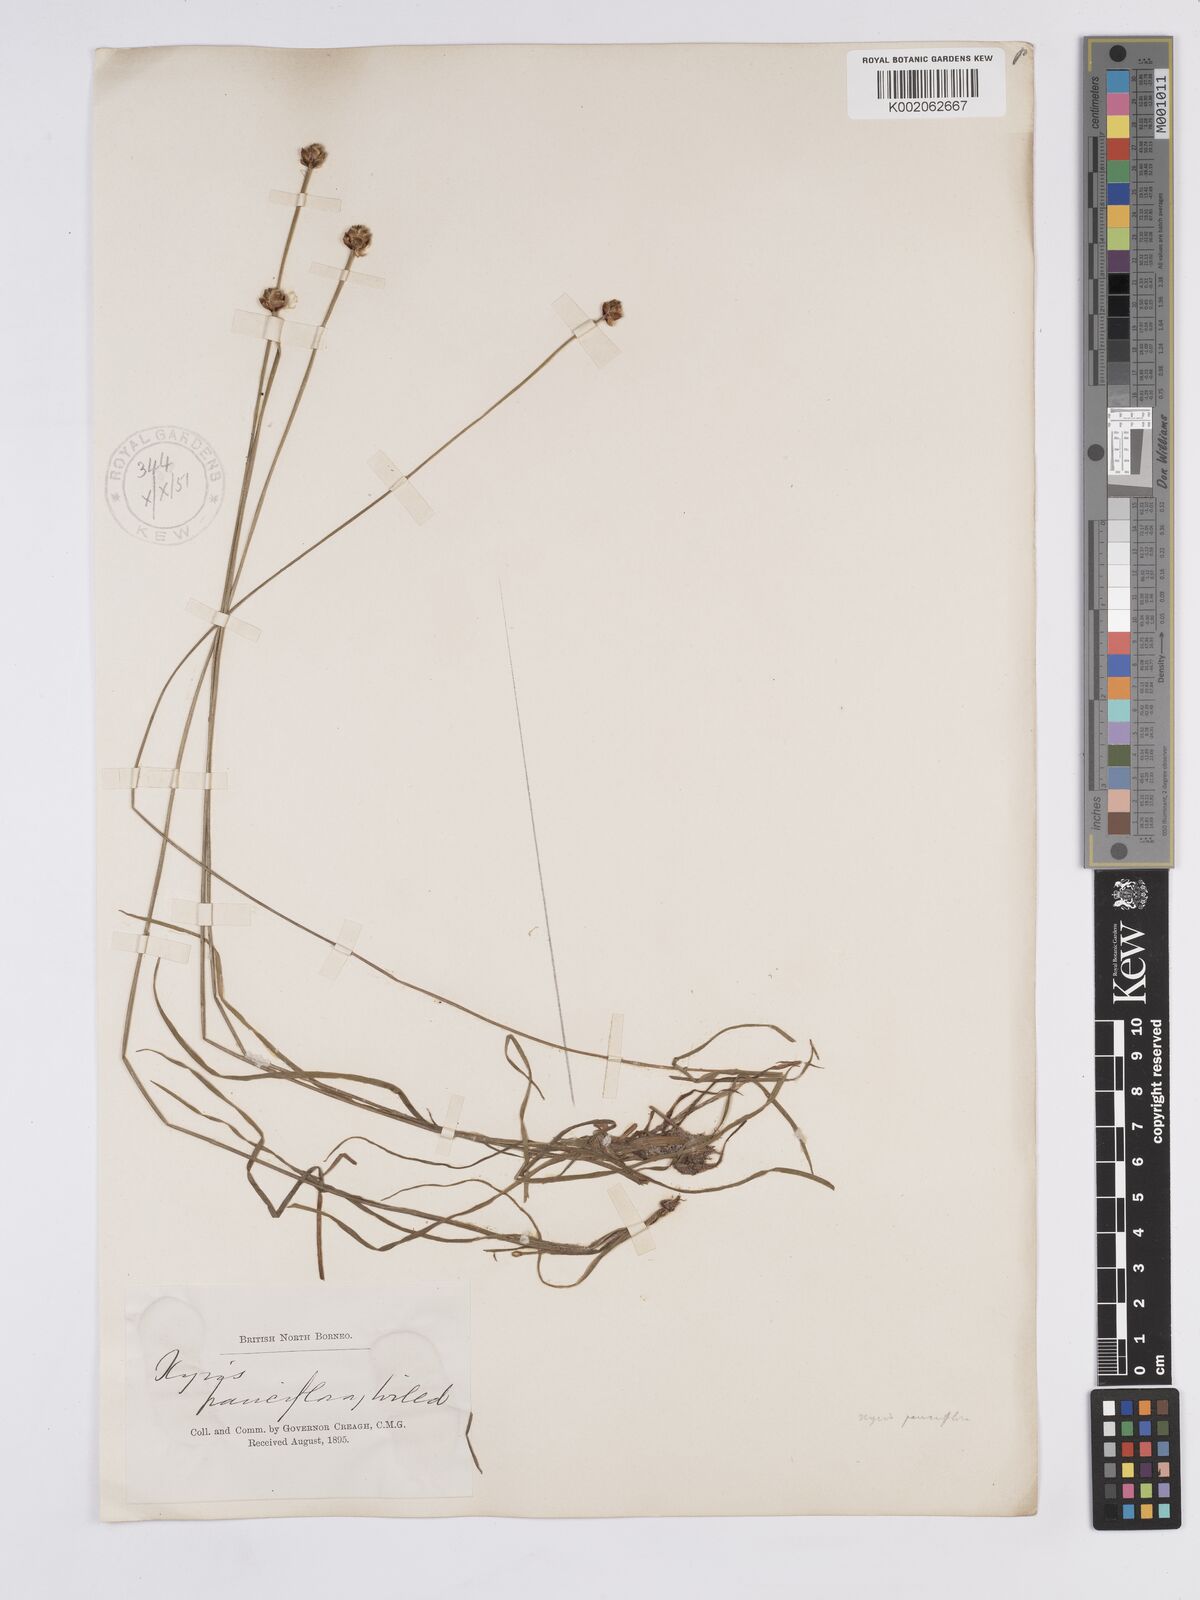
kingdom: Plantae
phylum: Tracheophyta
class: Liliopsida
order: Poales
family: Xyridaceae
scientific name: Xyridaceae
